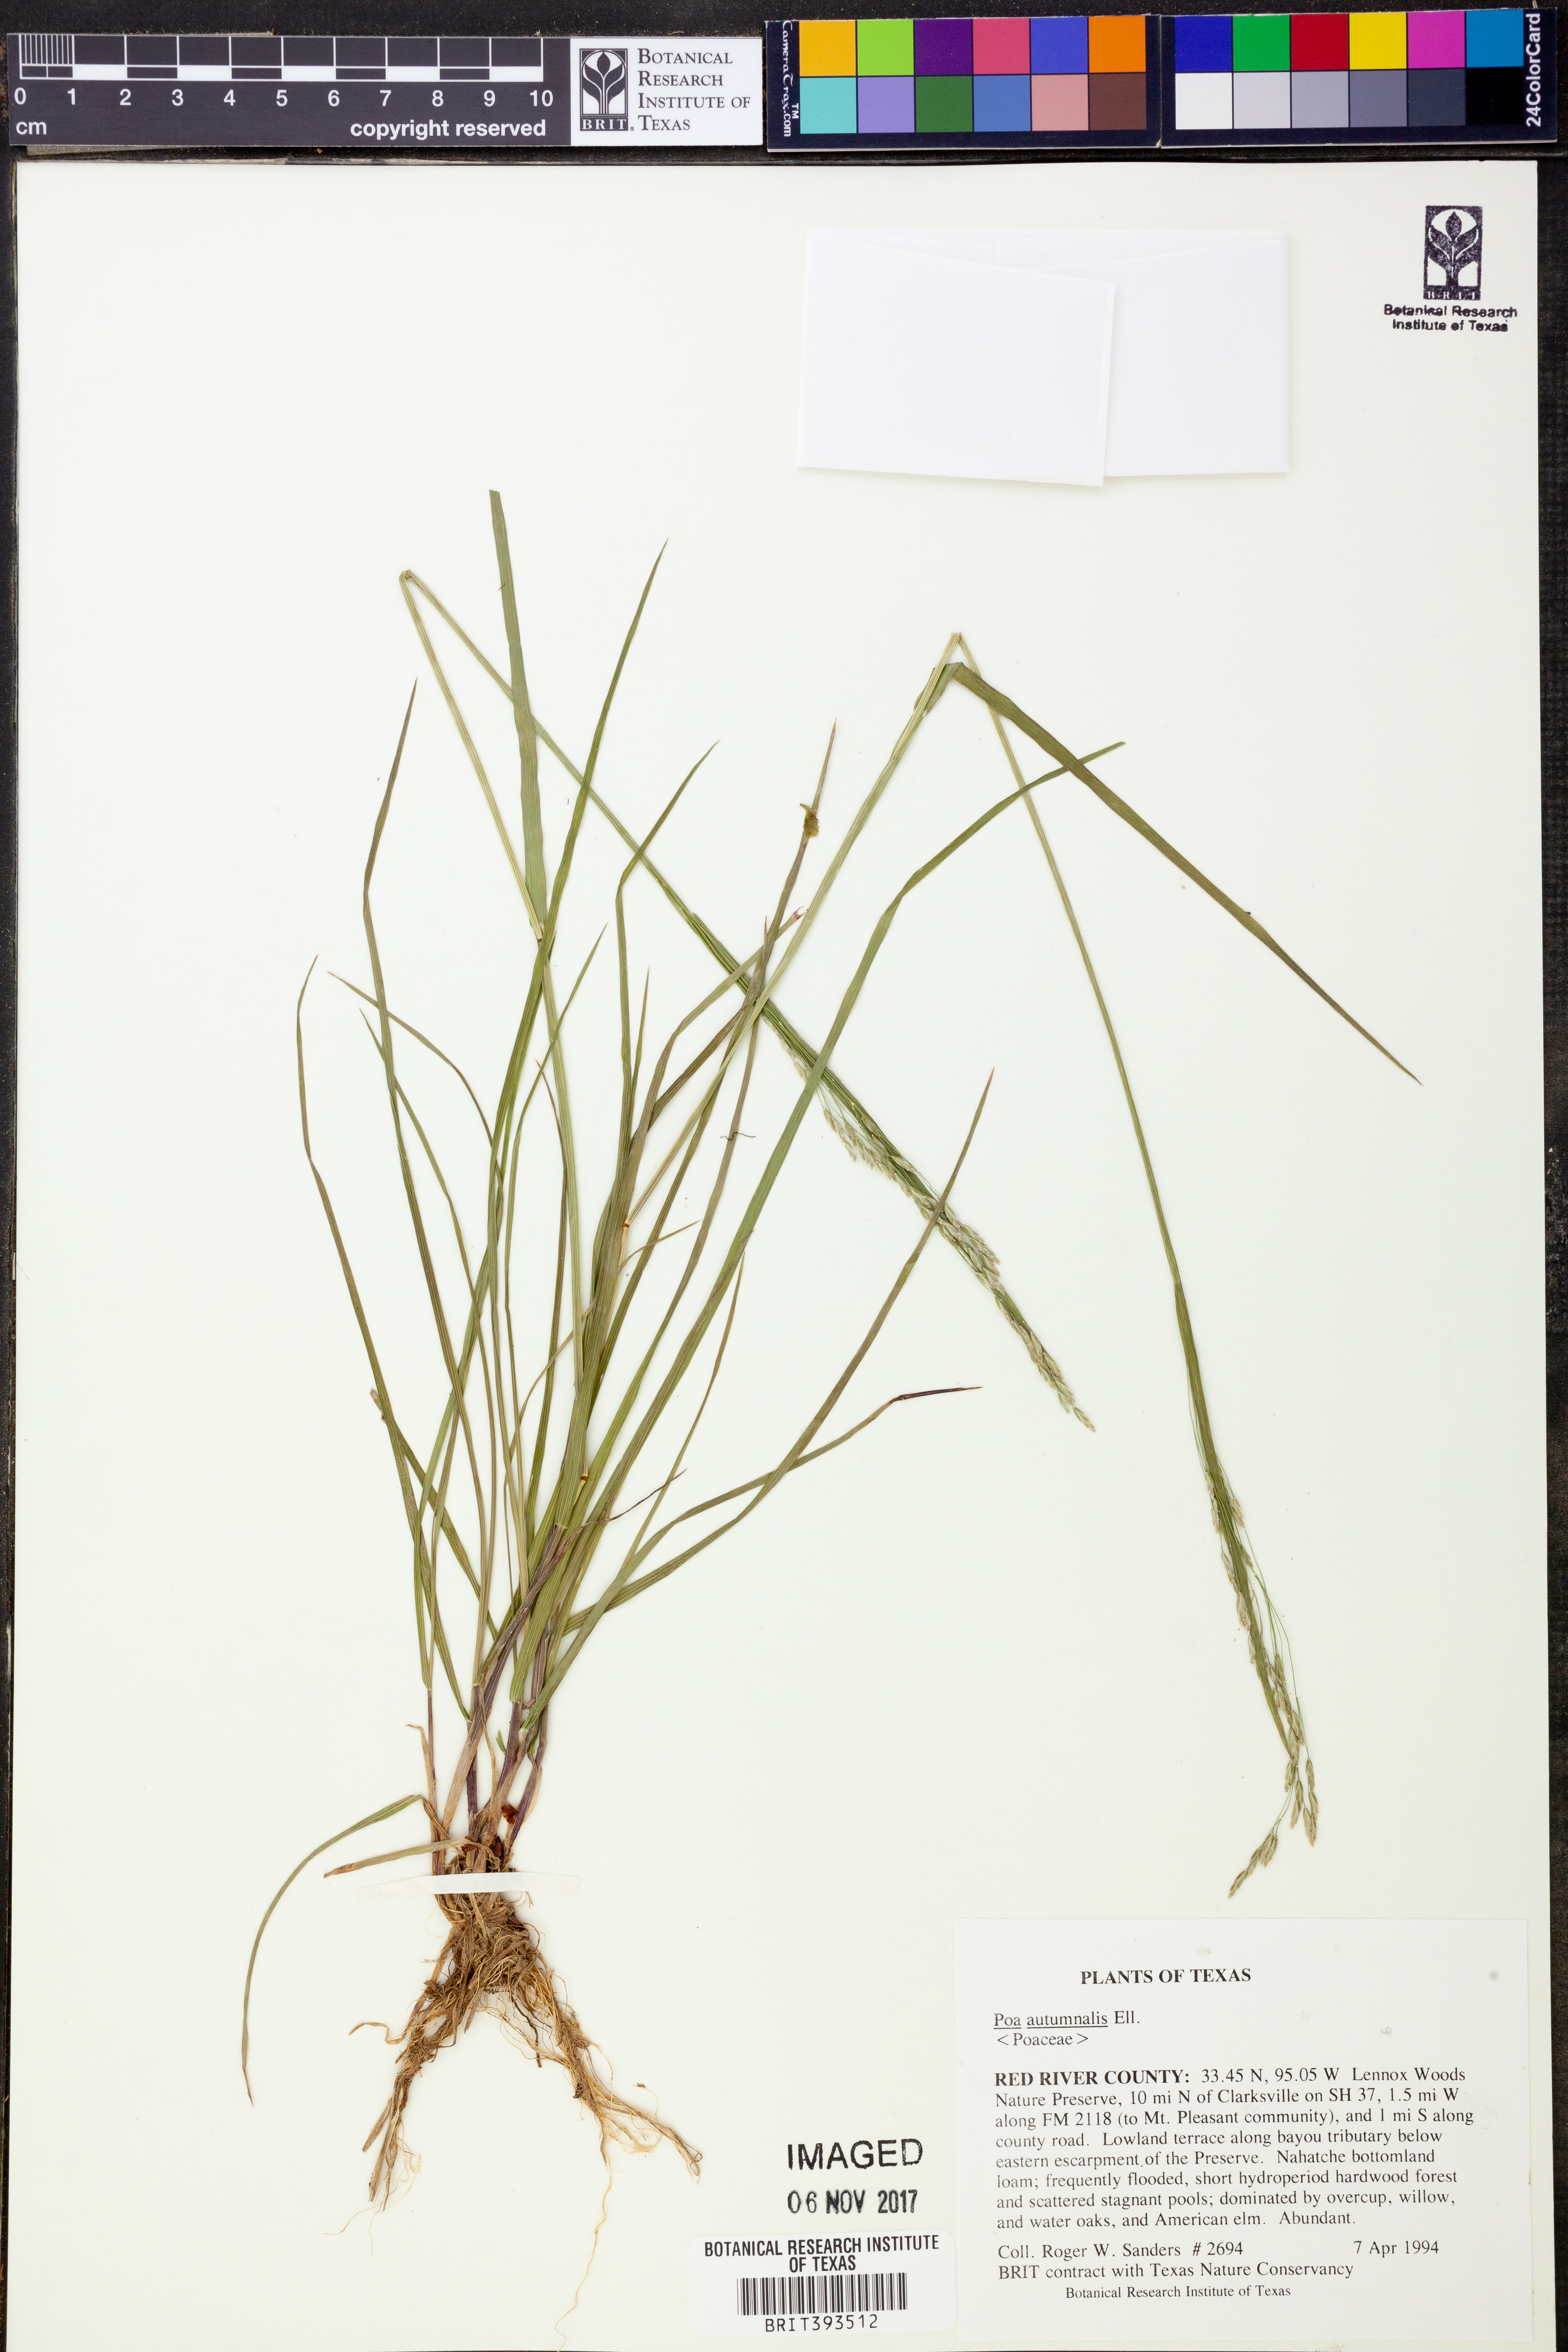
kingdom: Plantae
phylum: Tracheophyta
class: Liliopsida
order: Poales
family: Poaceae
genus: Poa
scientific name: Poa autumnalis
